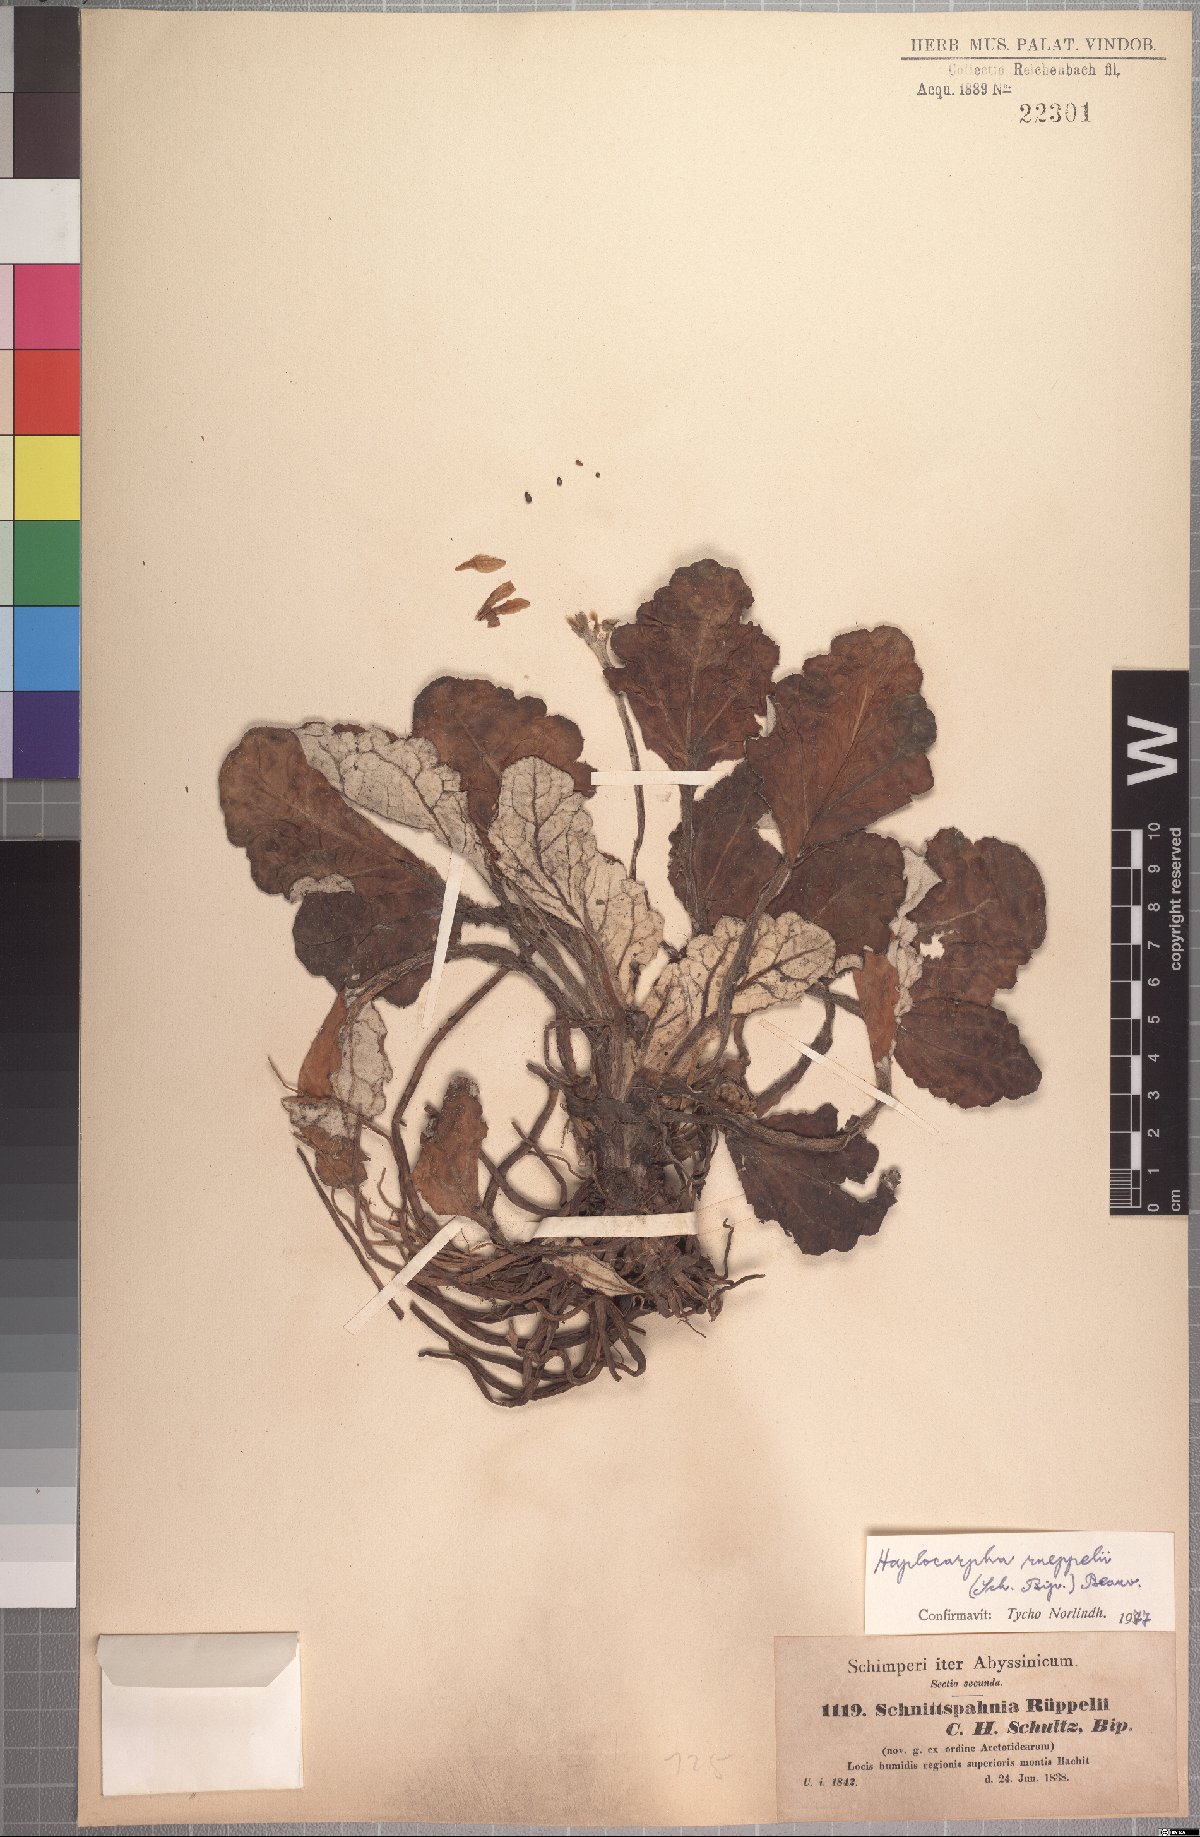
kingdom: Plantae
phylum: Tracheophyta
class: Magnoliopsida
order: Asterales
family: Asteraceae
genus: Haplocarpha
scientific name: Haplocarpha rueppelii
